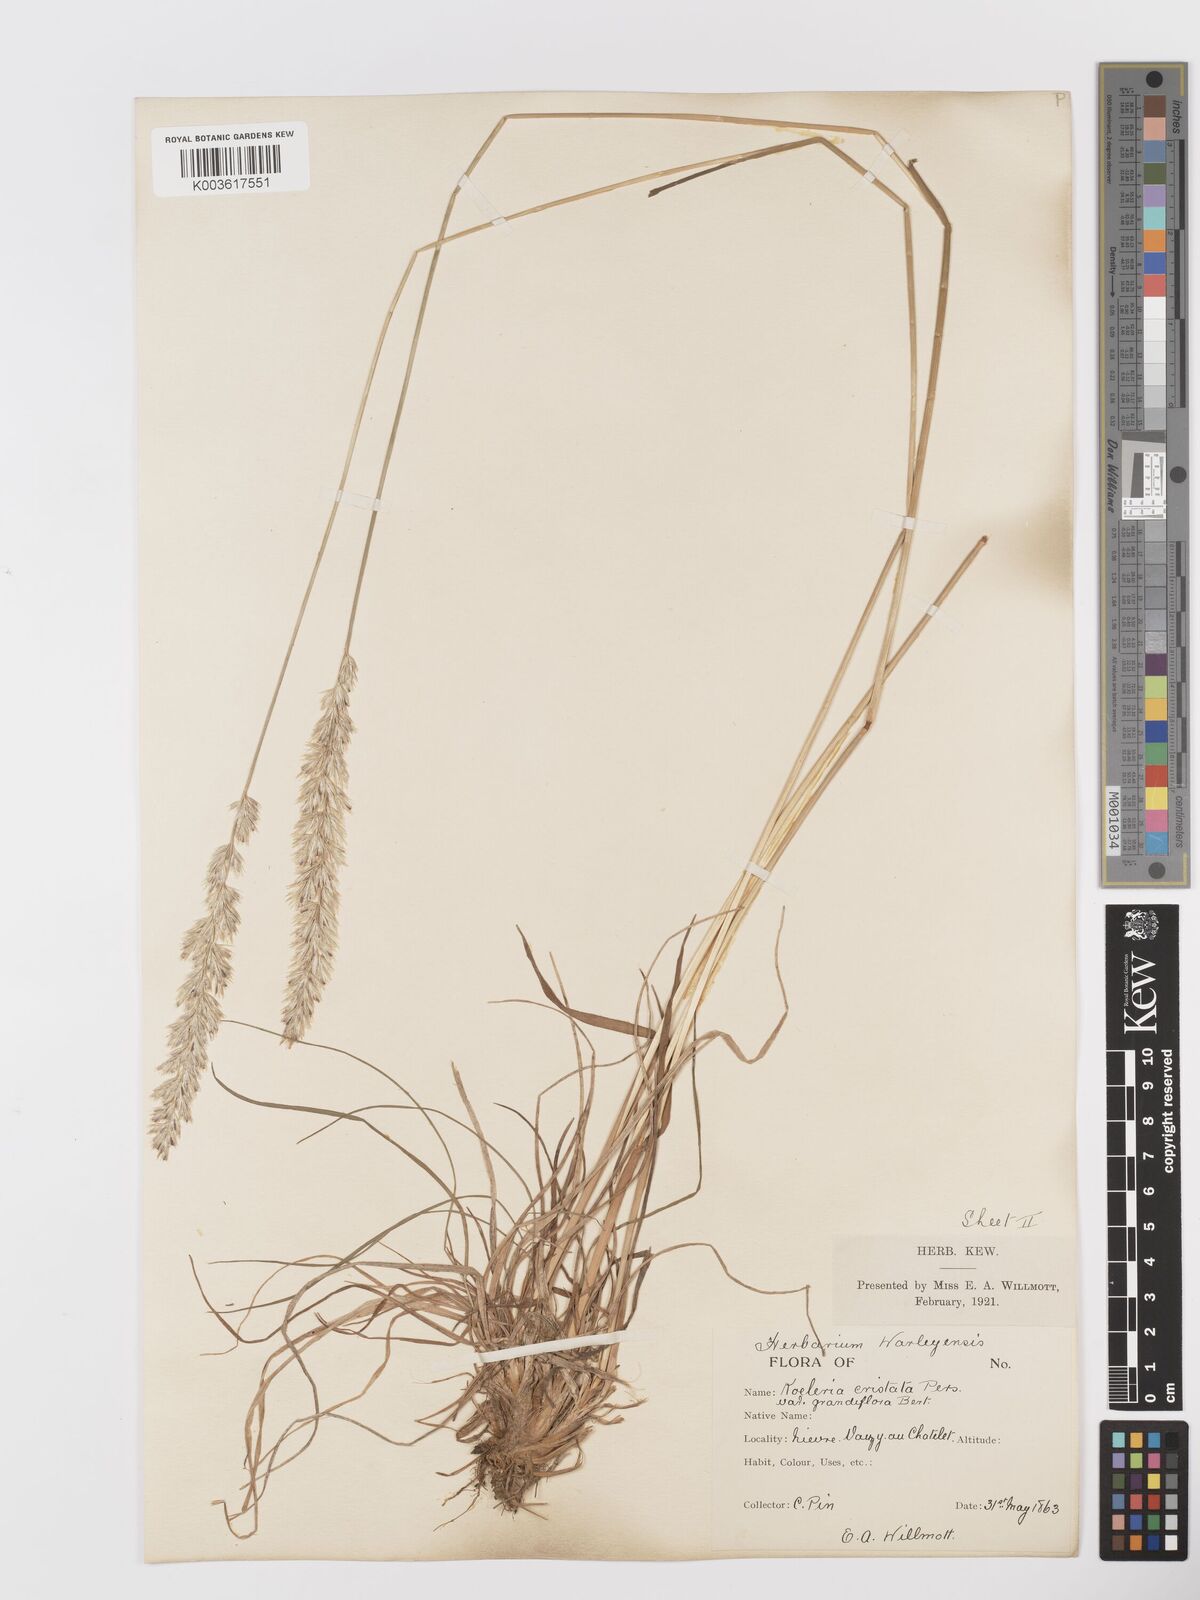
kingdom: Plantae
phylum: Tracheophyta
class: Liliopsida
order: Poales
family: Poaceae
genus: Koeleria
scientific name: Koeleria
